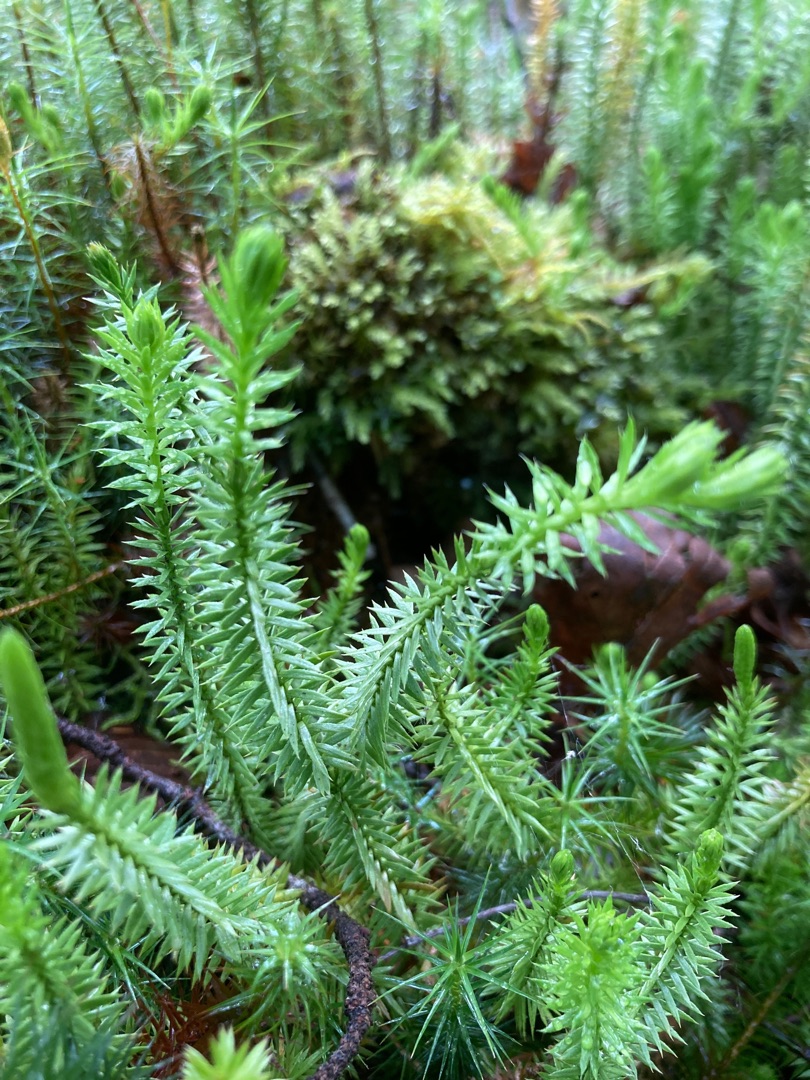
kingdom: Plantae
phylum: Tracheophyta
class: Lycopodiopsida
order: Lycopodiales
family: Lycopodiaceae
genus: Spinulum
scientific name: Spinulum annotinum
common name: Femradet ulvefod
